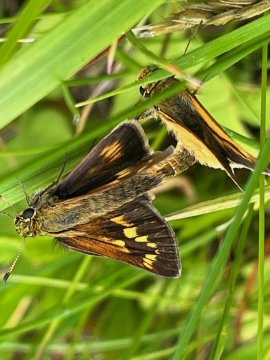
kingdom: Animalia
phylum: Arthropoda
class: Insecta
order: Lepidoptera
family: Hesperiidae
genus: Polites
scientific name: Polites
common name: Long Dash Skipper
